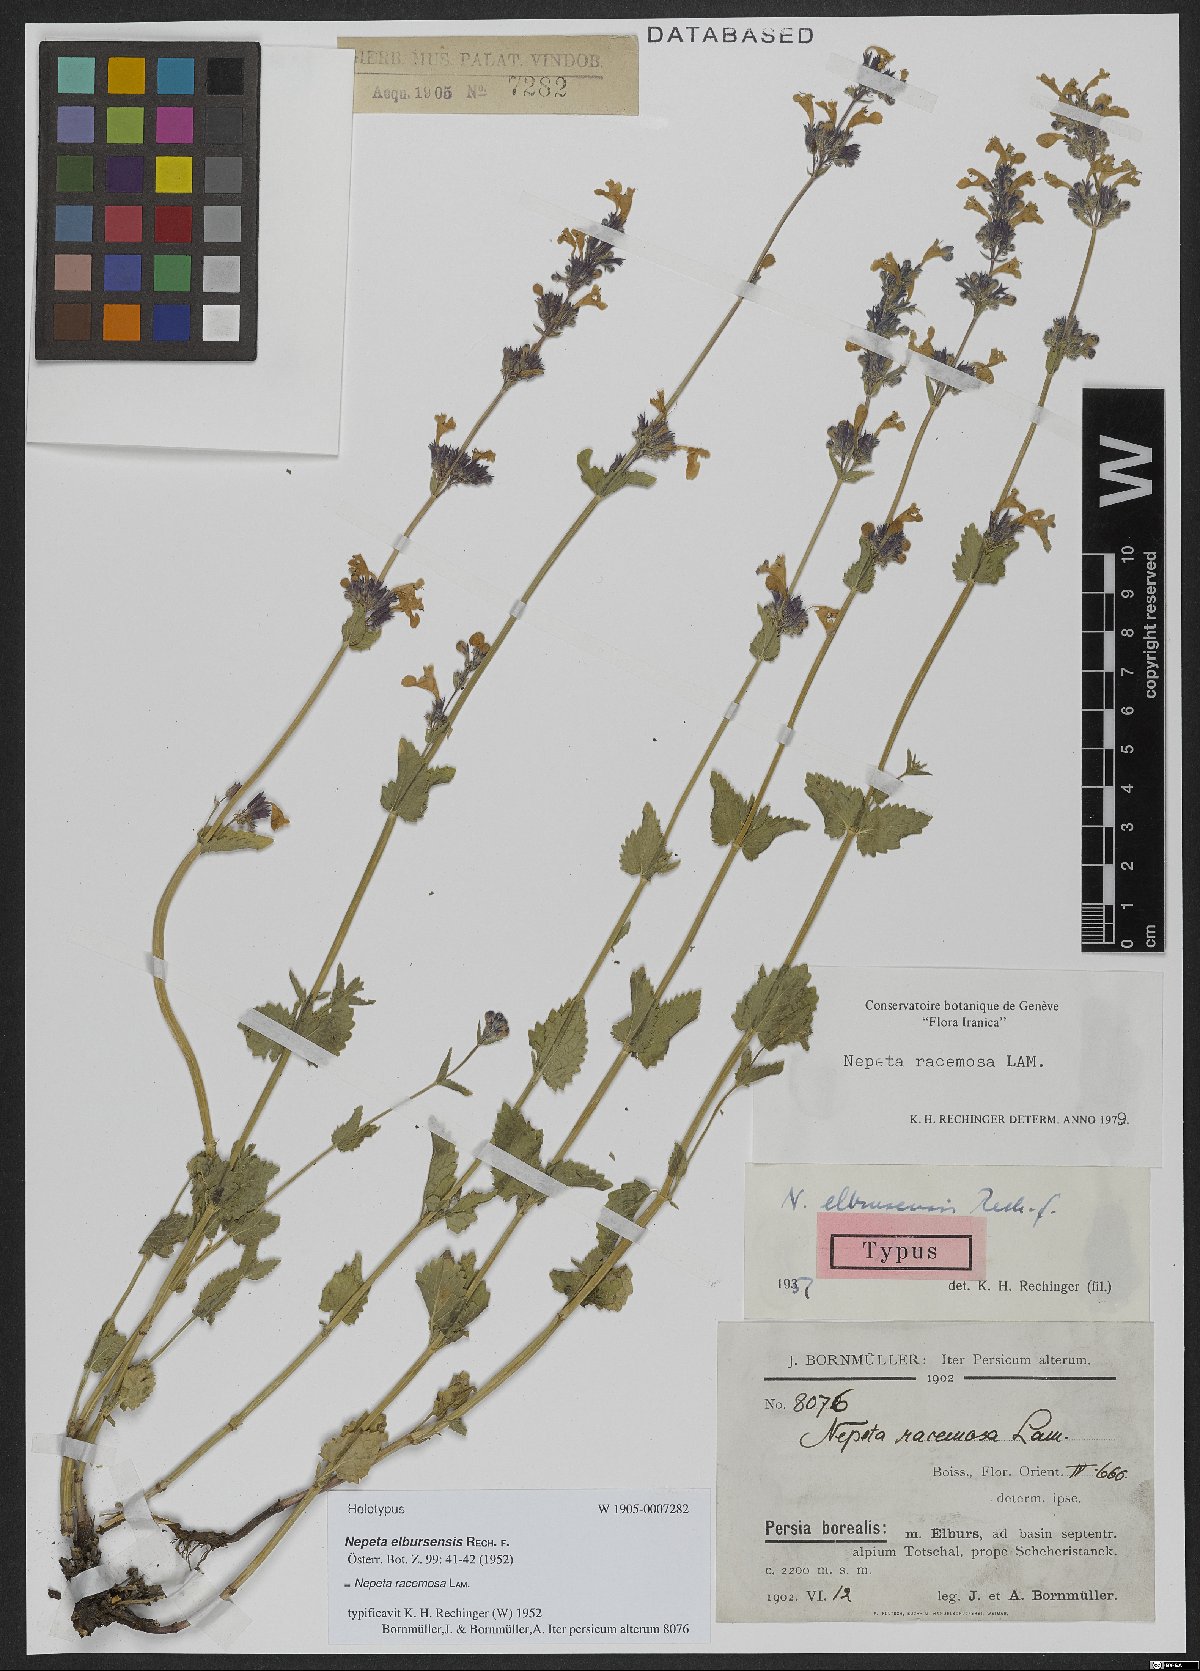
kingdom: Plantae
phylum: Tracheophyta
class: Magnoliopsida
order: Lamiales
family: Lamiaceae
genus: Nepeta
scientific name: Nepeta racemosa
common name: Raceme catnip
